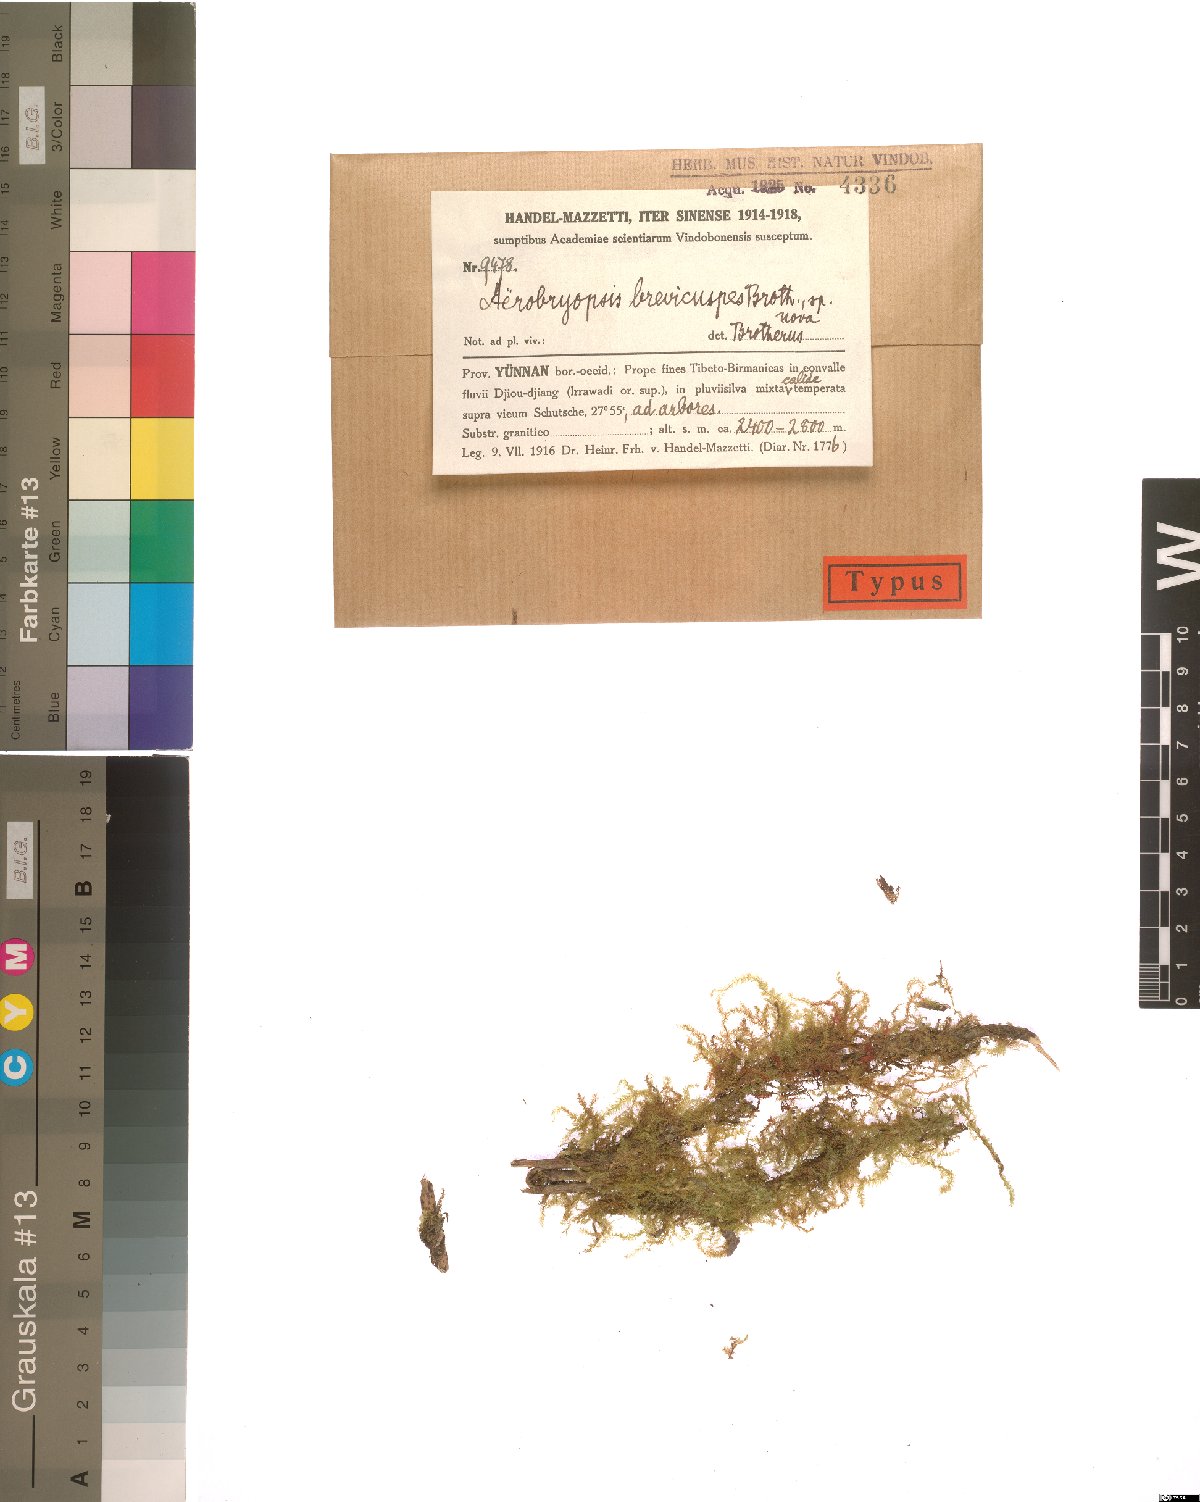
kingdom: Plantae
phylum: Bryophyta
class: Bryopsida
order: Hypnales
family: Meteoriaceae
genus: Pseudotrachypus
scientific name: Pseudotrachypus wallichii
